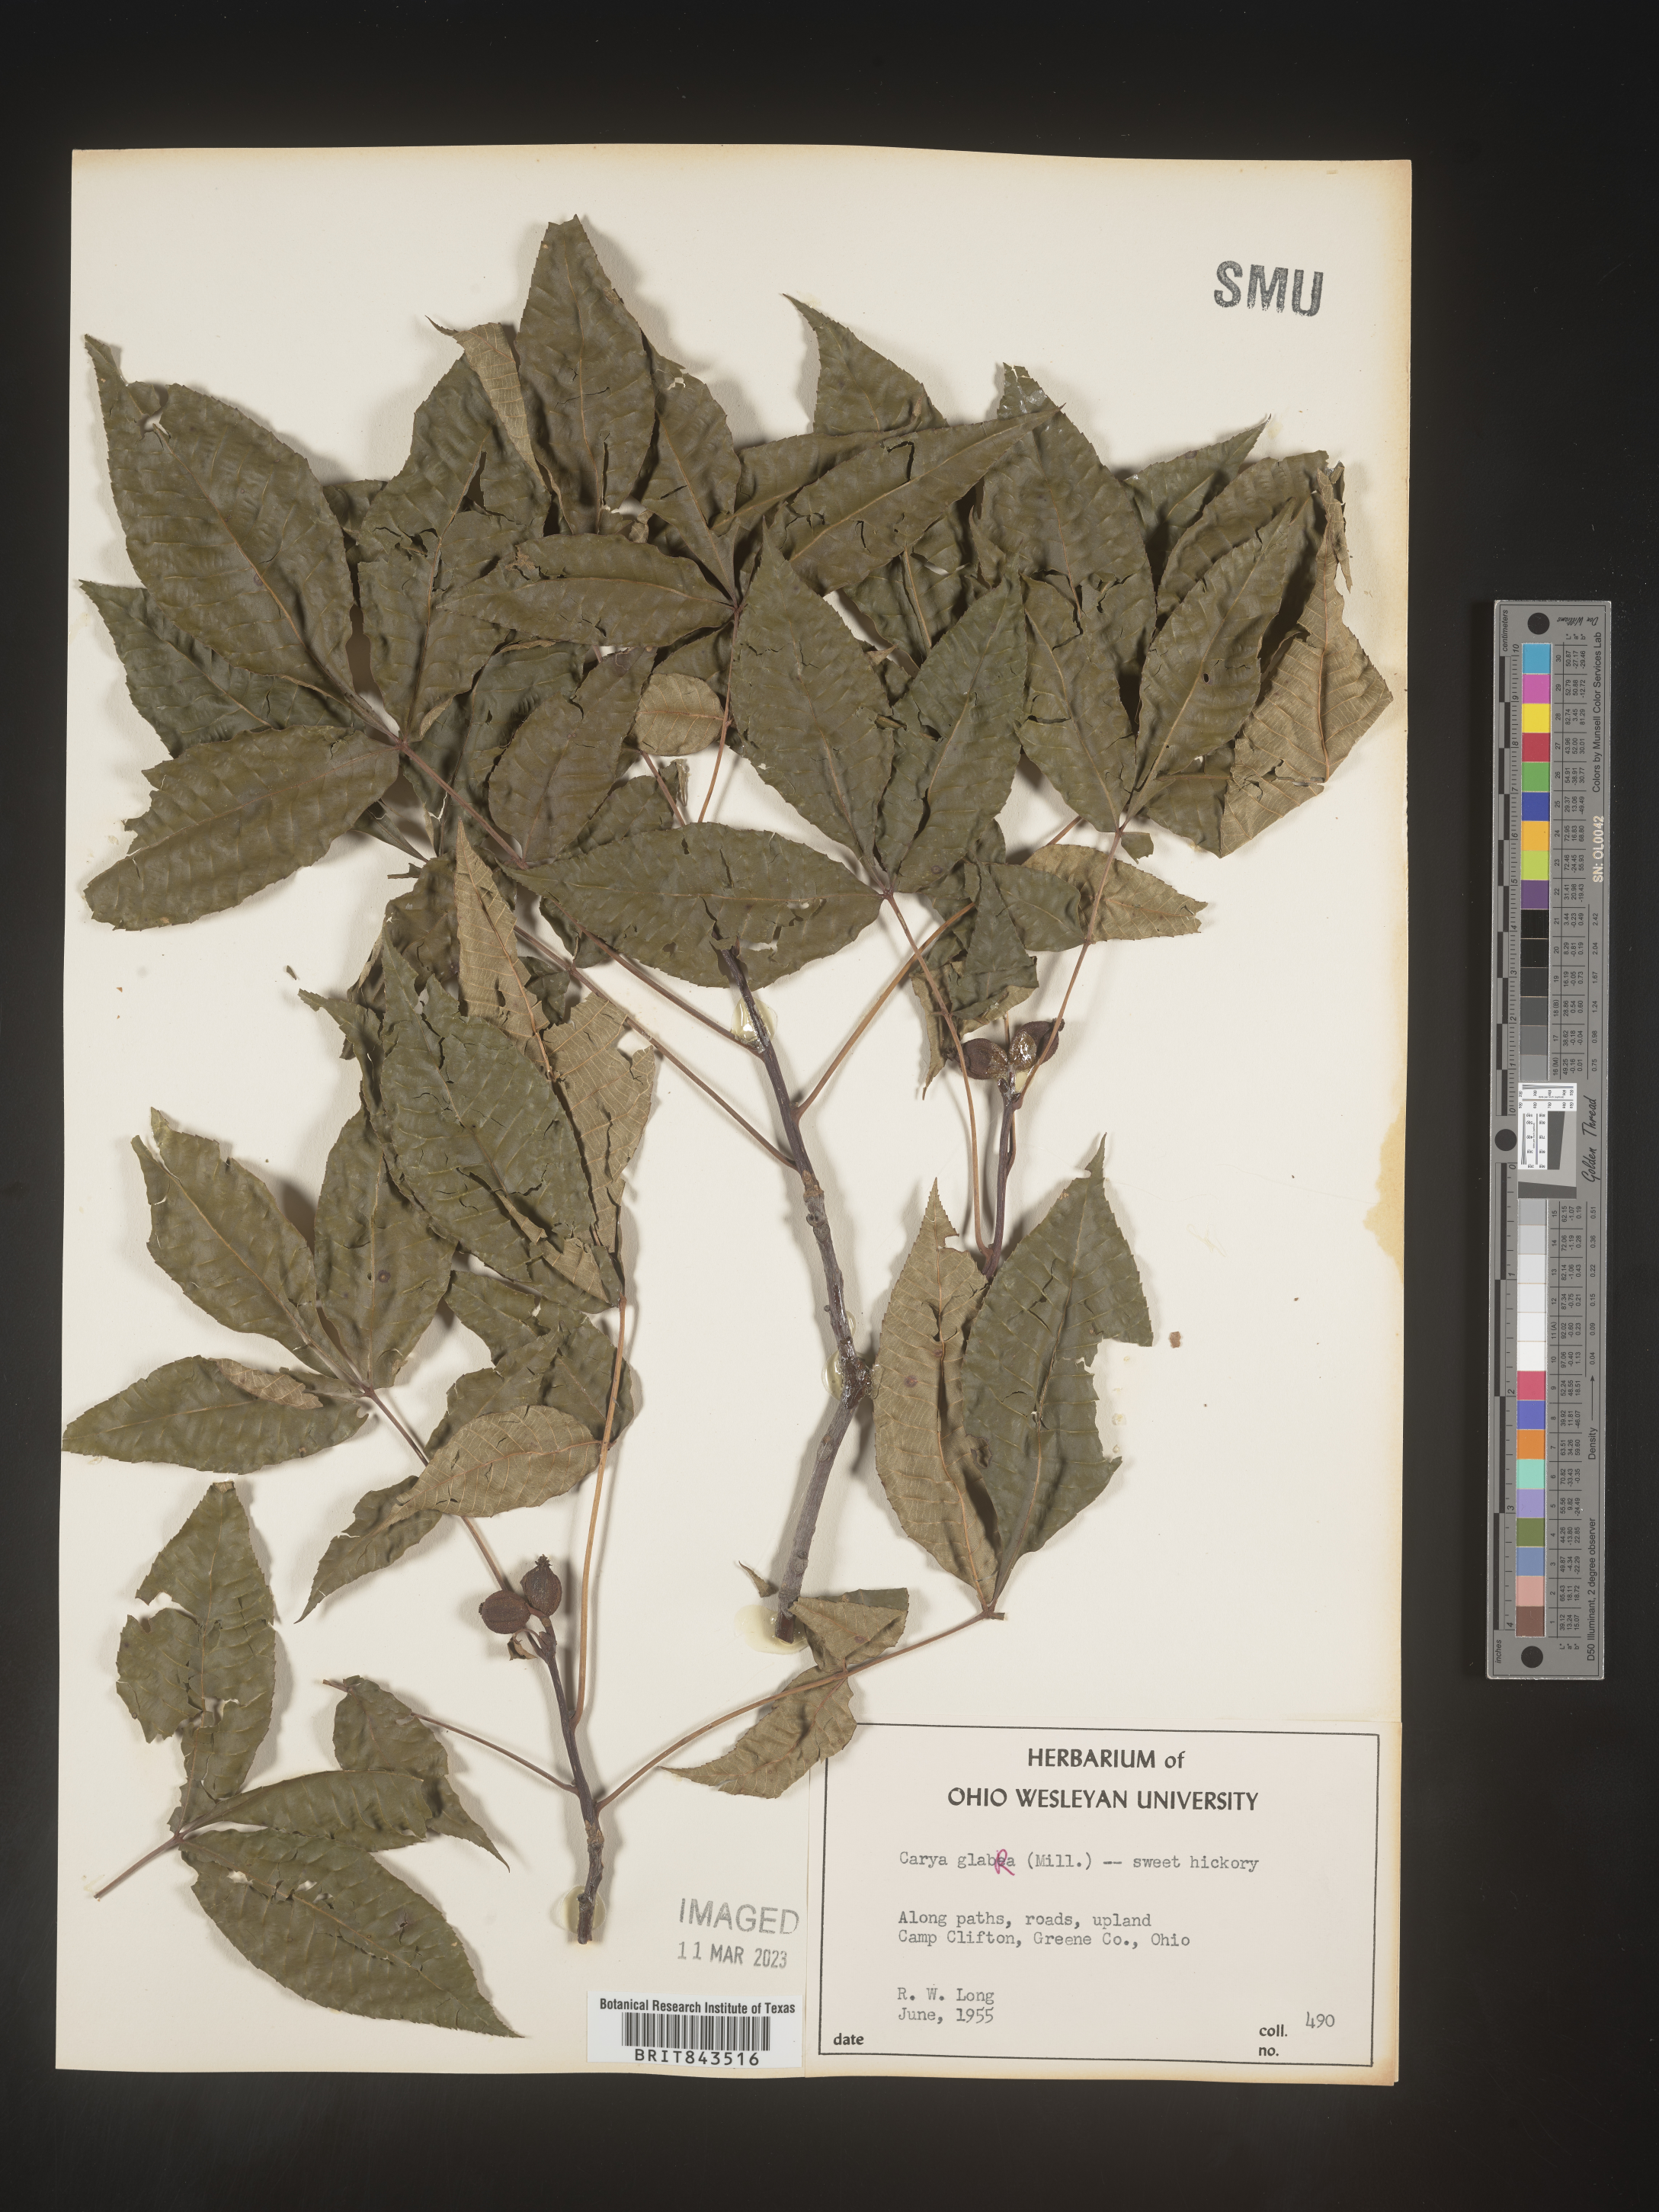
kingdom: Plantae
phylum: Tracheophyta
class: Magnoliopsida
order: Fagales
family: Juglandaceae
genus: Carya
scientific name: Carya glabra
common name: Pignut hickory
